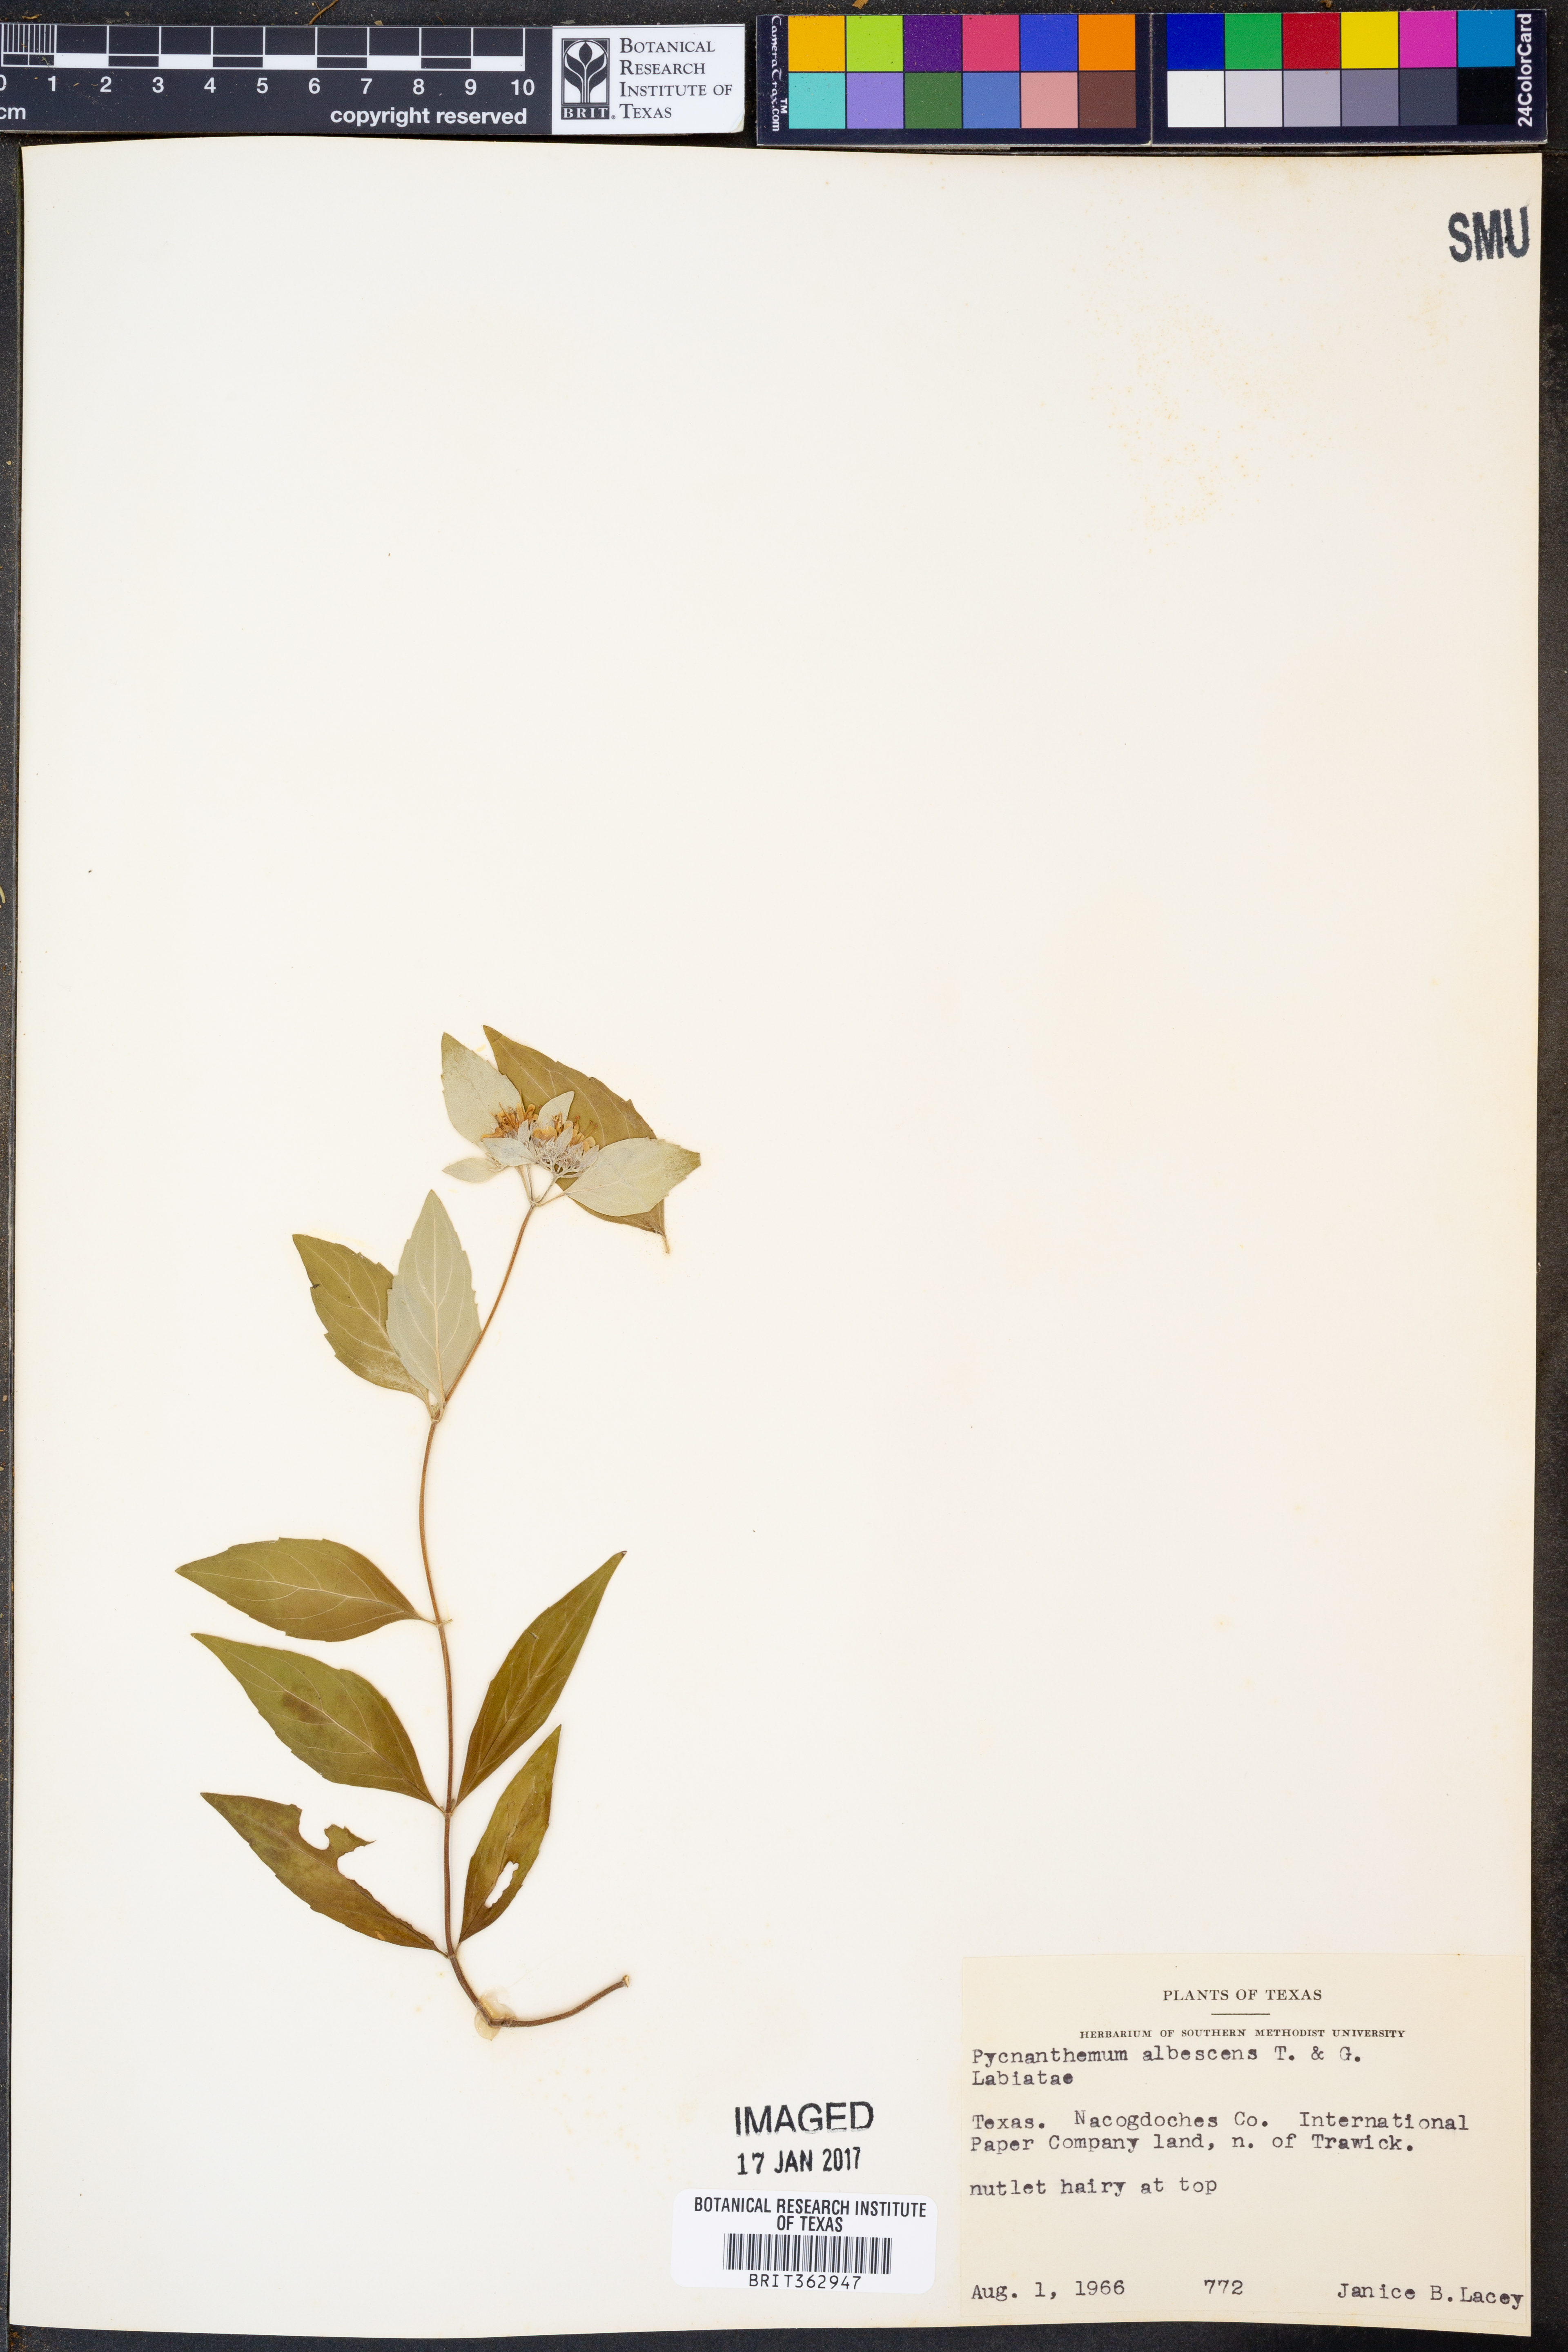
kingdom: Plantae
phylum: Tracheophyta
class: Magnoliopsida
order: Lamiales
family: Lamiaceae
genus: Pycnanthemum
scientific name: Pycnanthemum albescens
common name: White-leaf mountain-mint
